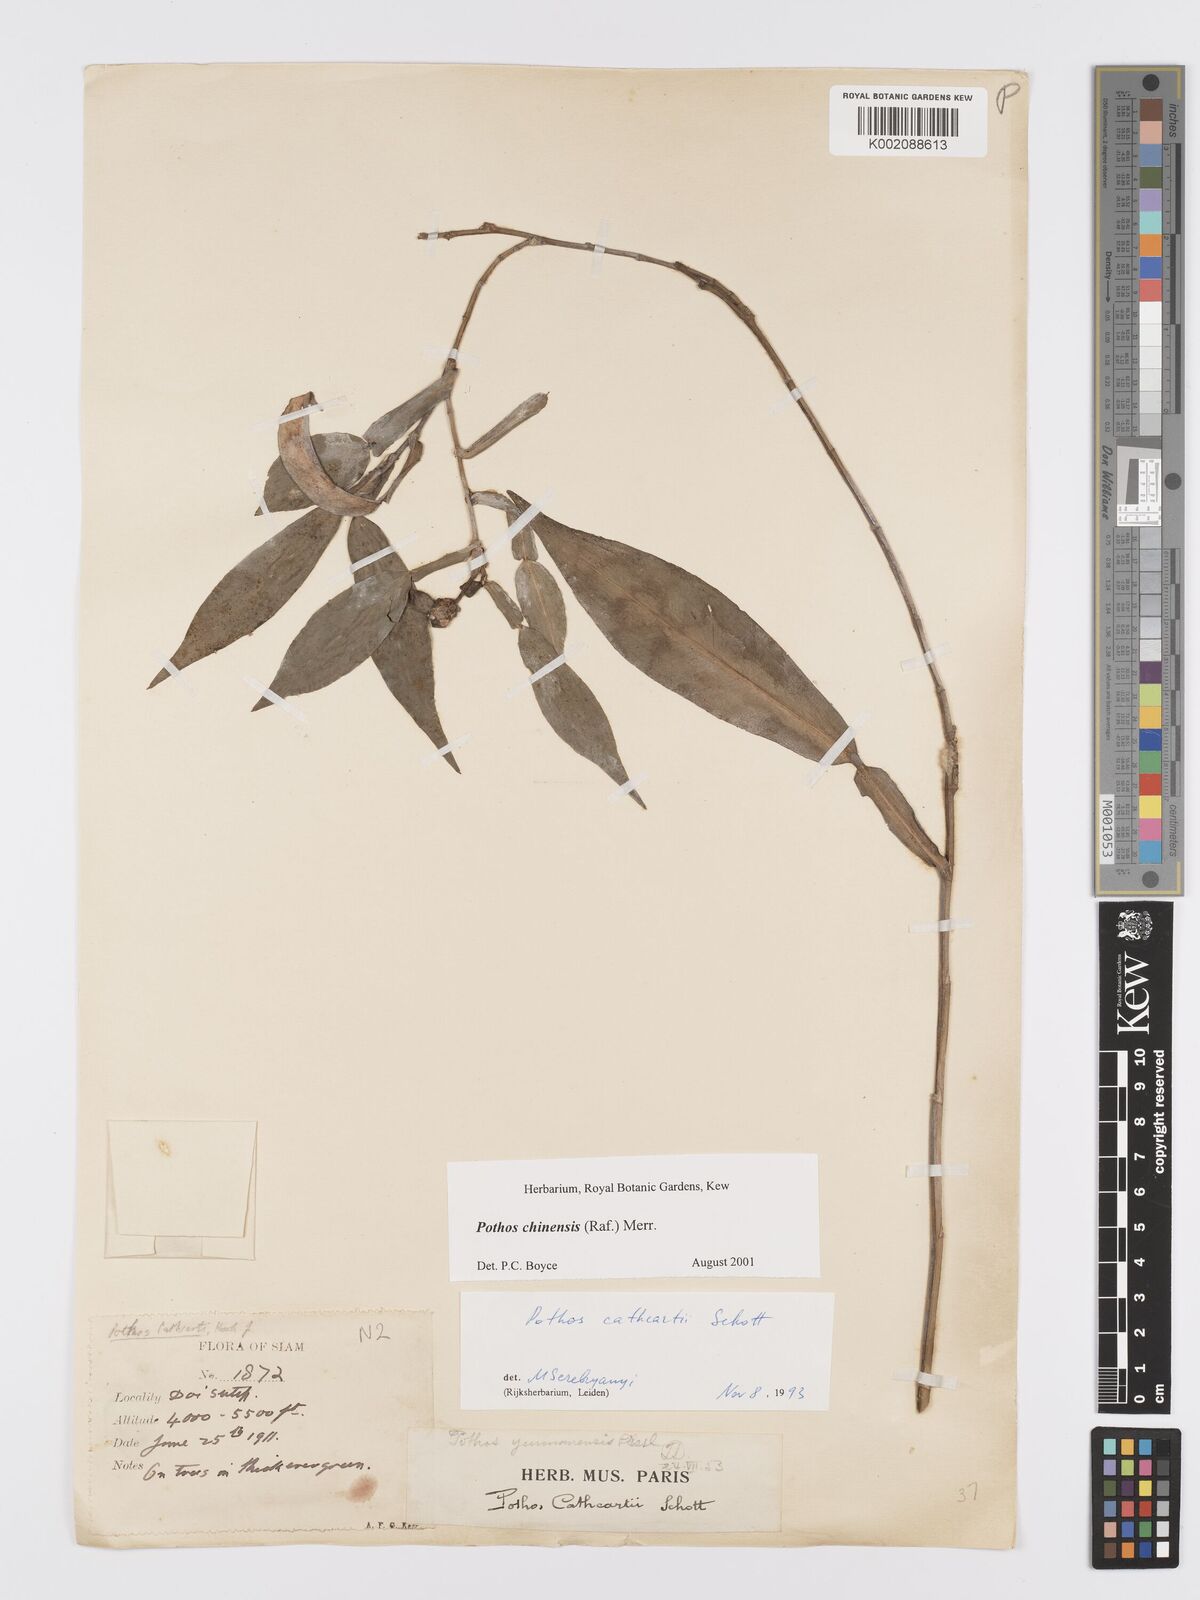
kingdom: Plantae
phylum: Tracheophyta
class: Liliopsida
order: Alismatales
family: Araceae
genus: Pothos
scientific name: Pothos chinensis
